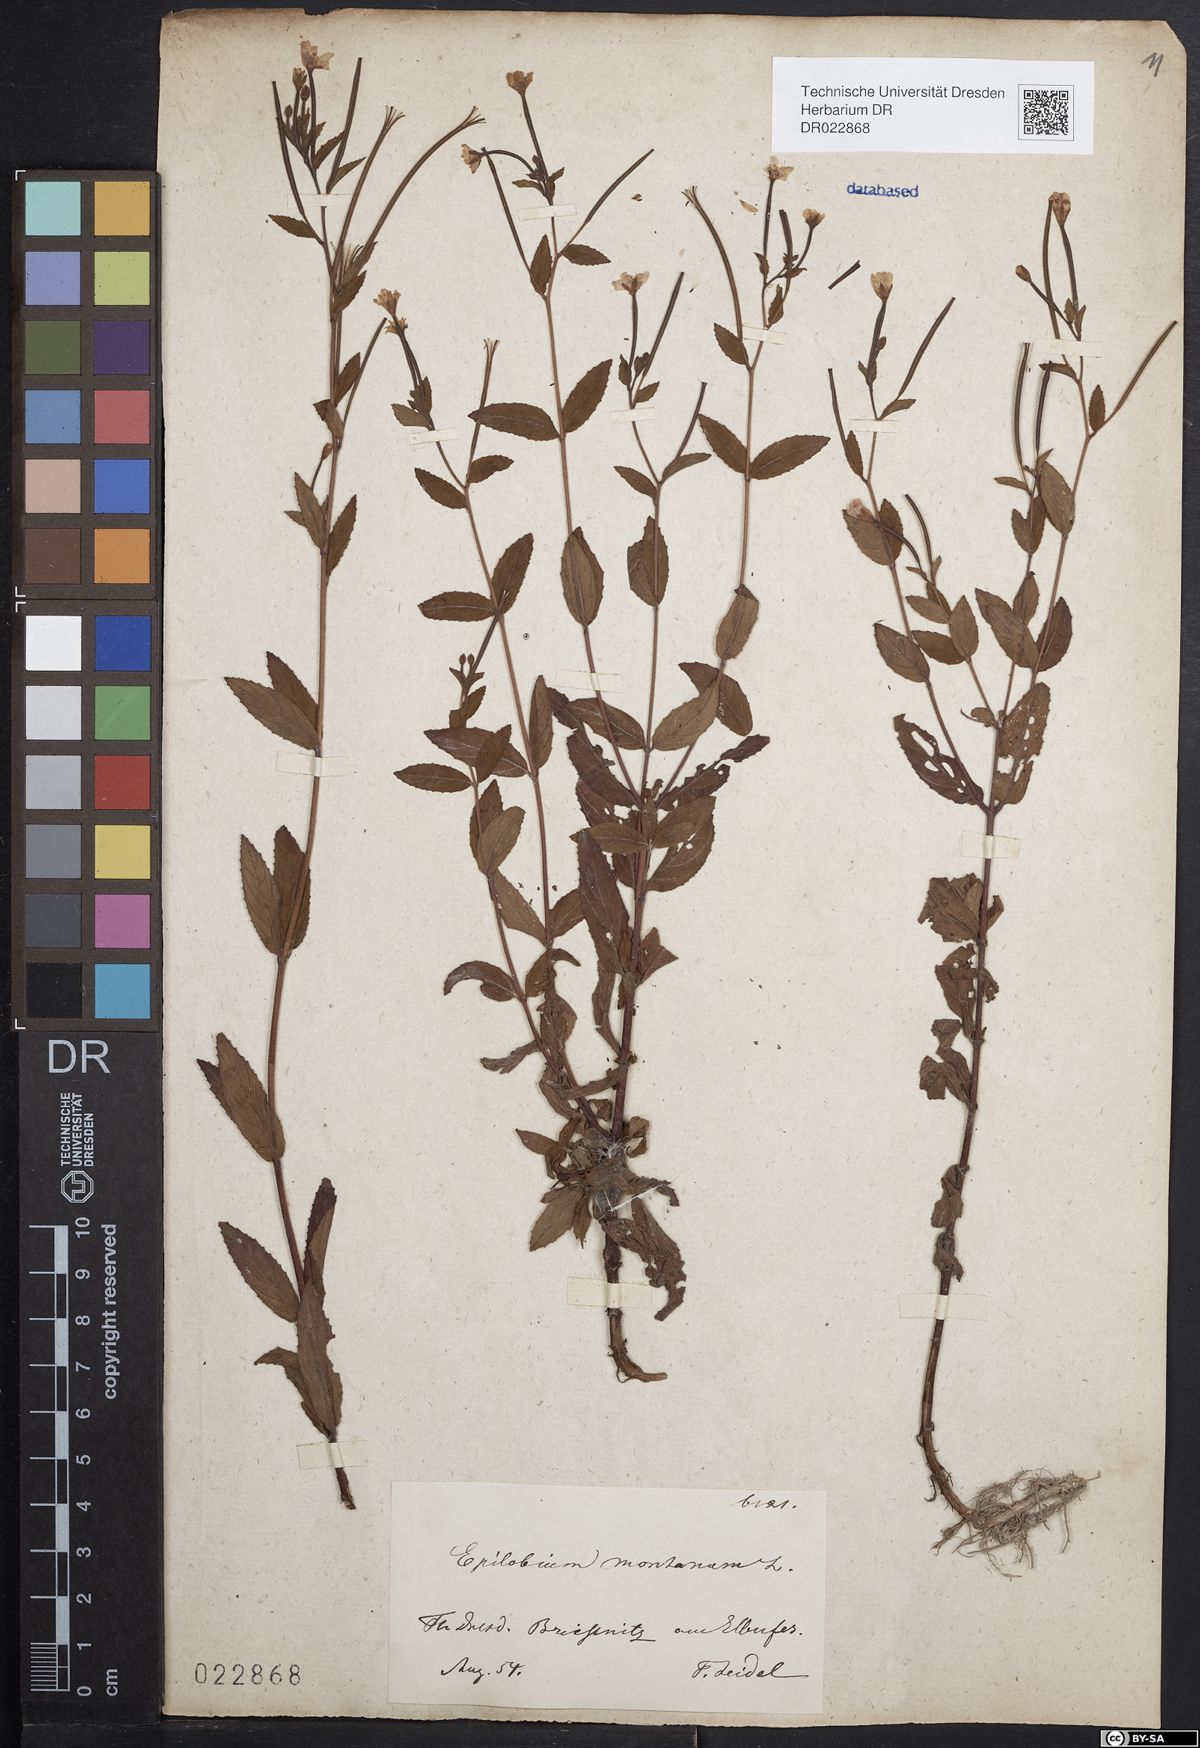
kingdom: Plantae
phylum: Tracheophyta
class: Magnoliopsida
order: Myrtales
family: Onagraceae
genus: Epilobium
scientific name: Epilobium montanum
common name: Broad-leaved willowherb
